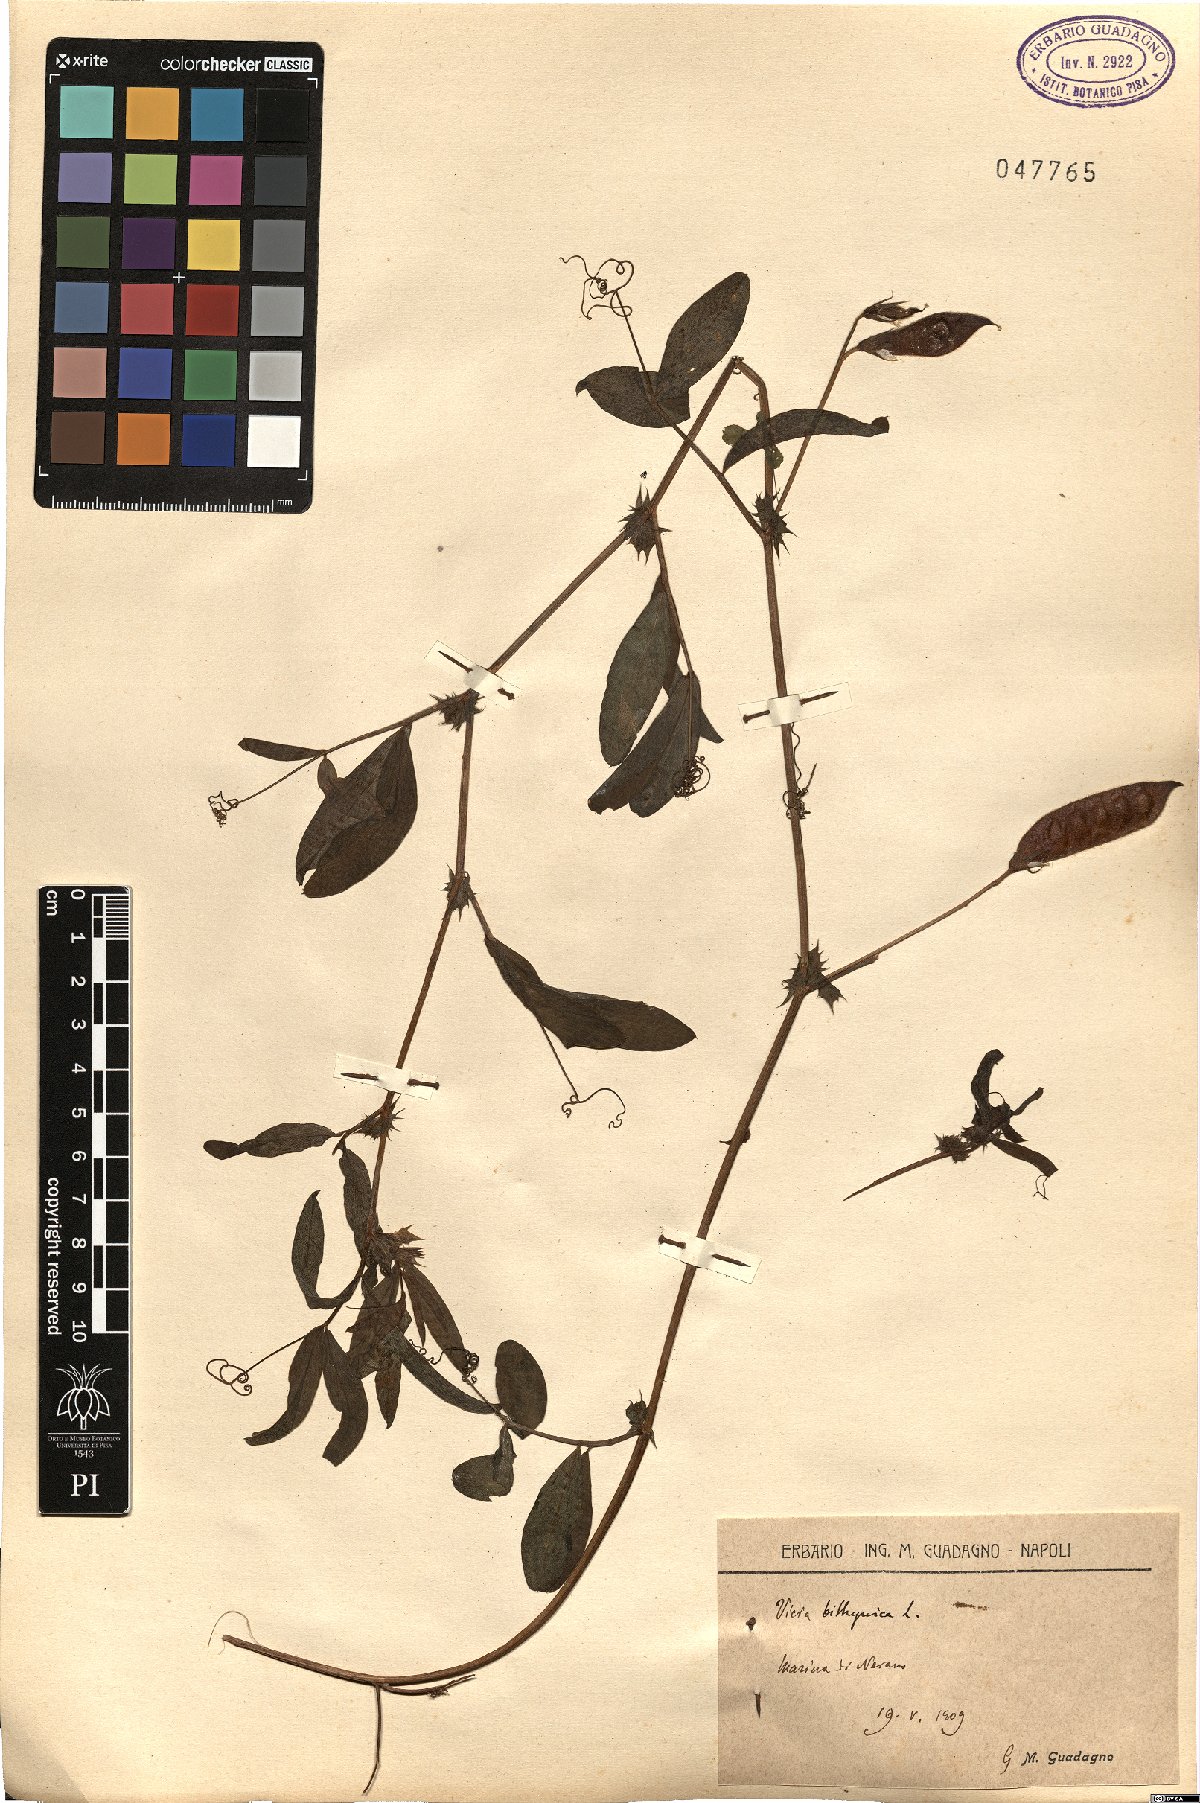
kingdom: Plantae
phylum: Tracheophyta
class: Magnoliopsida
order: Fabales
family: Fabaceae
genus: Vicia
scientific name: Vicia bithynica
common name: Bithynian vetch
